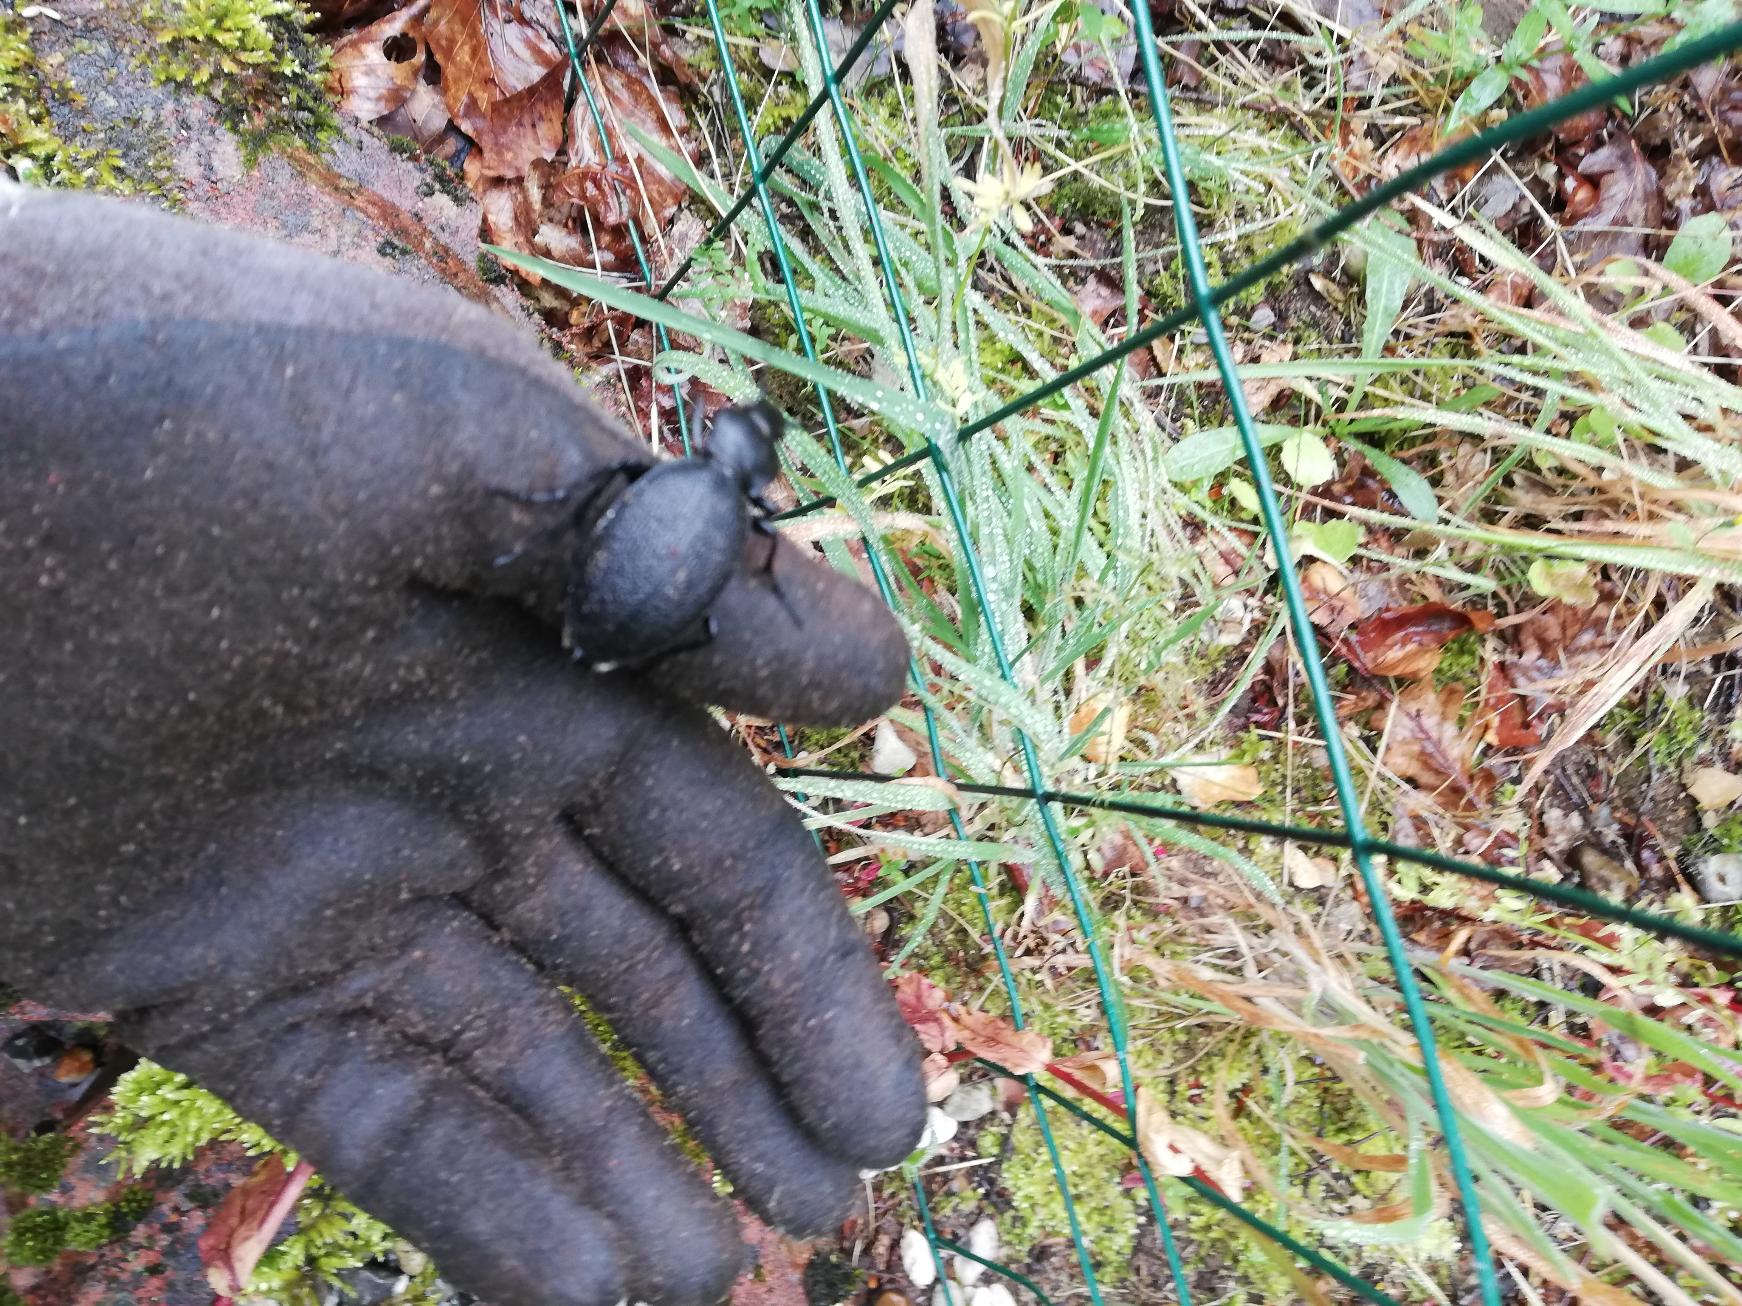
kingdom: Animalia
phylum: Arthropoda
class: Insecta
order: Coleoptera
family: Carabidae
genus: Carabus
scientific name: Carabus coriaceus
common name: Læderløber
